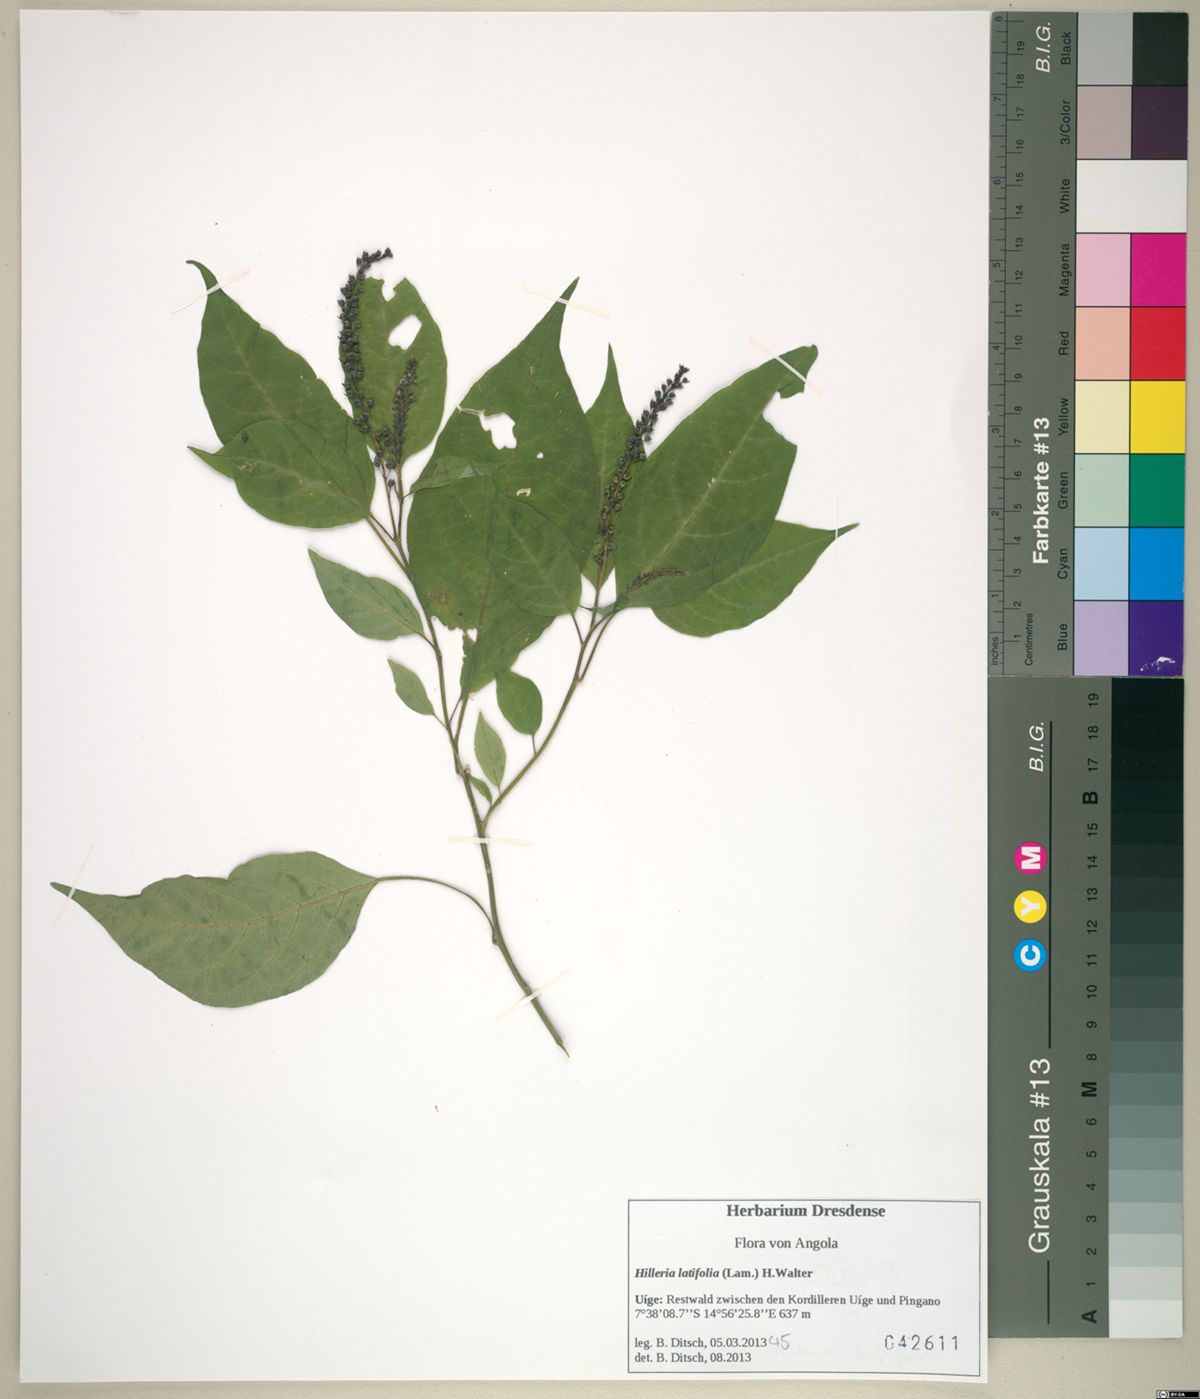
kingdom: Plantae
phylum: Tracheophyta
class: Magnoliopsida
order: Caryophyllales
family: Phytolaccaceae
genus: Hilleria
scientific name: Hilleria latifolia
